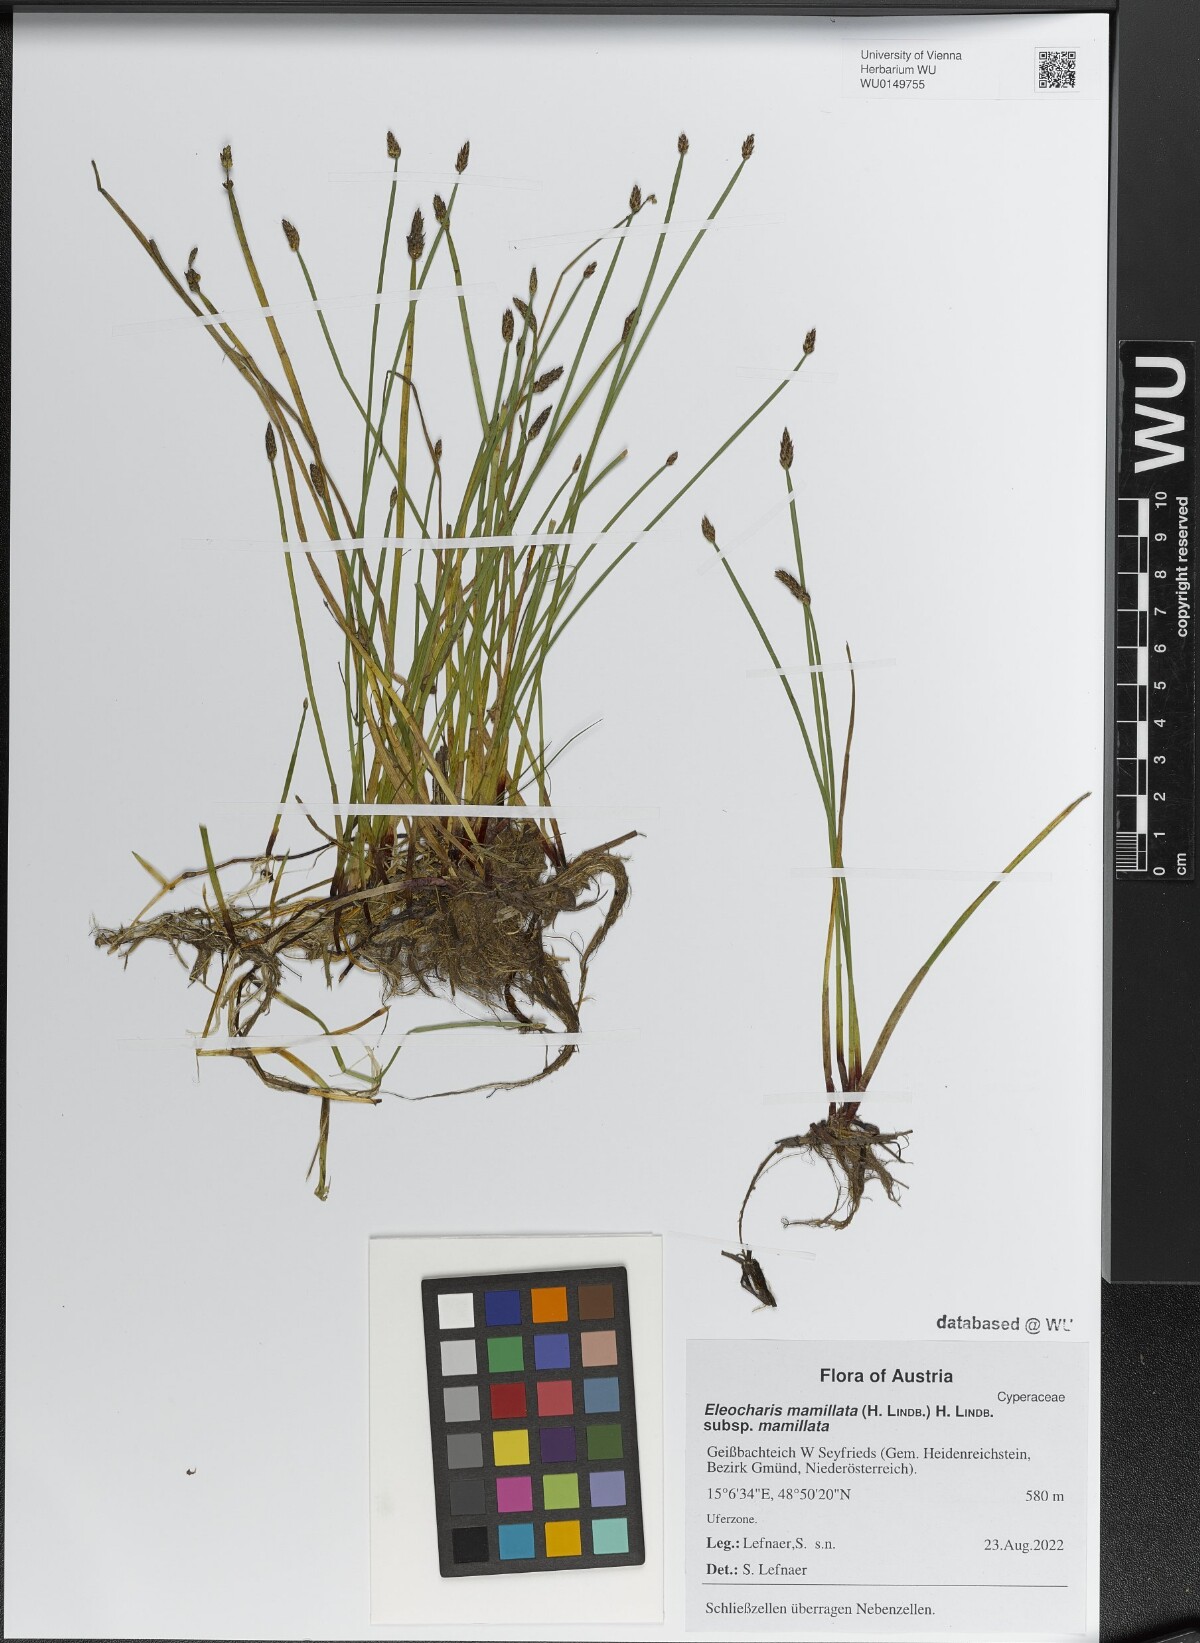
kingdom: Plantae
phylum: Tracheophyta
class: Liliopsida
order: Poales
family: Cyperaceae
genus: Eleocharis
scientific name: Eleocharis mamillata
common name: Northern spike-rush
